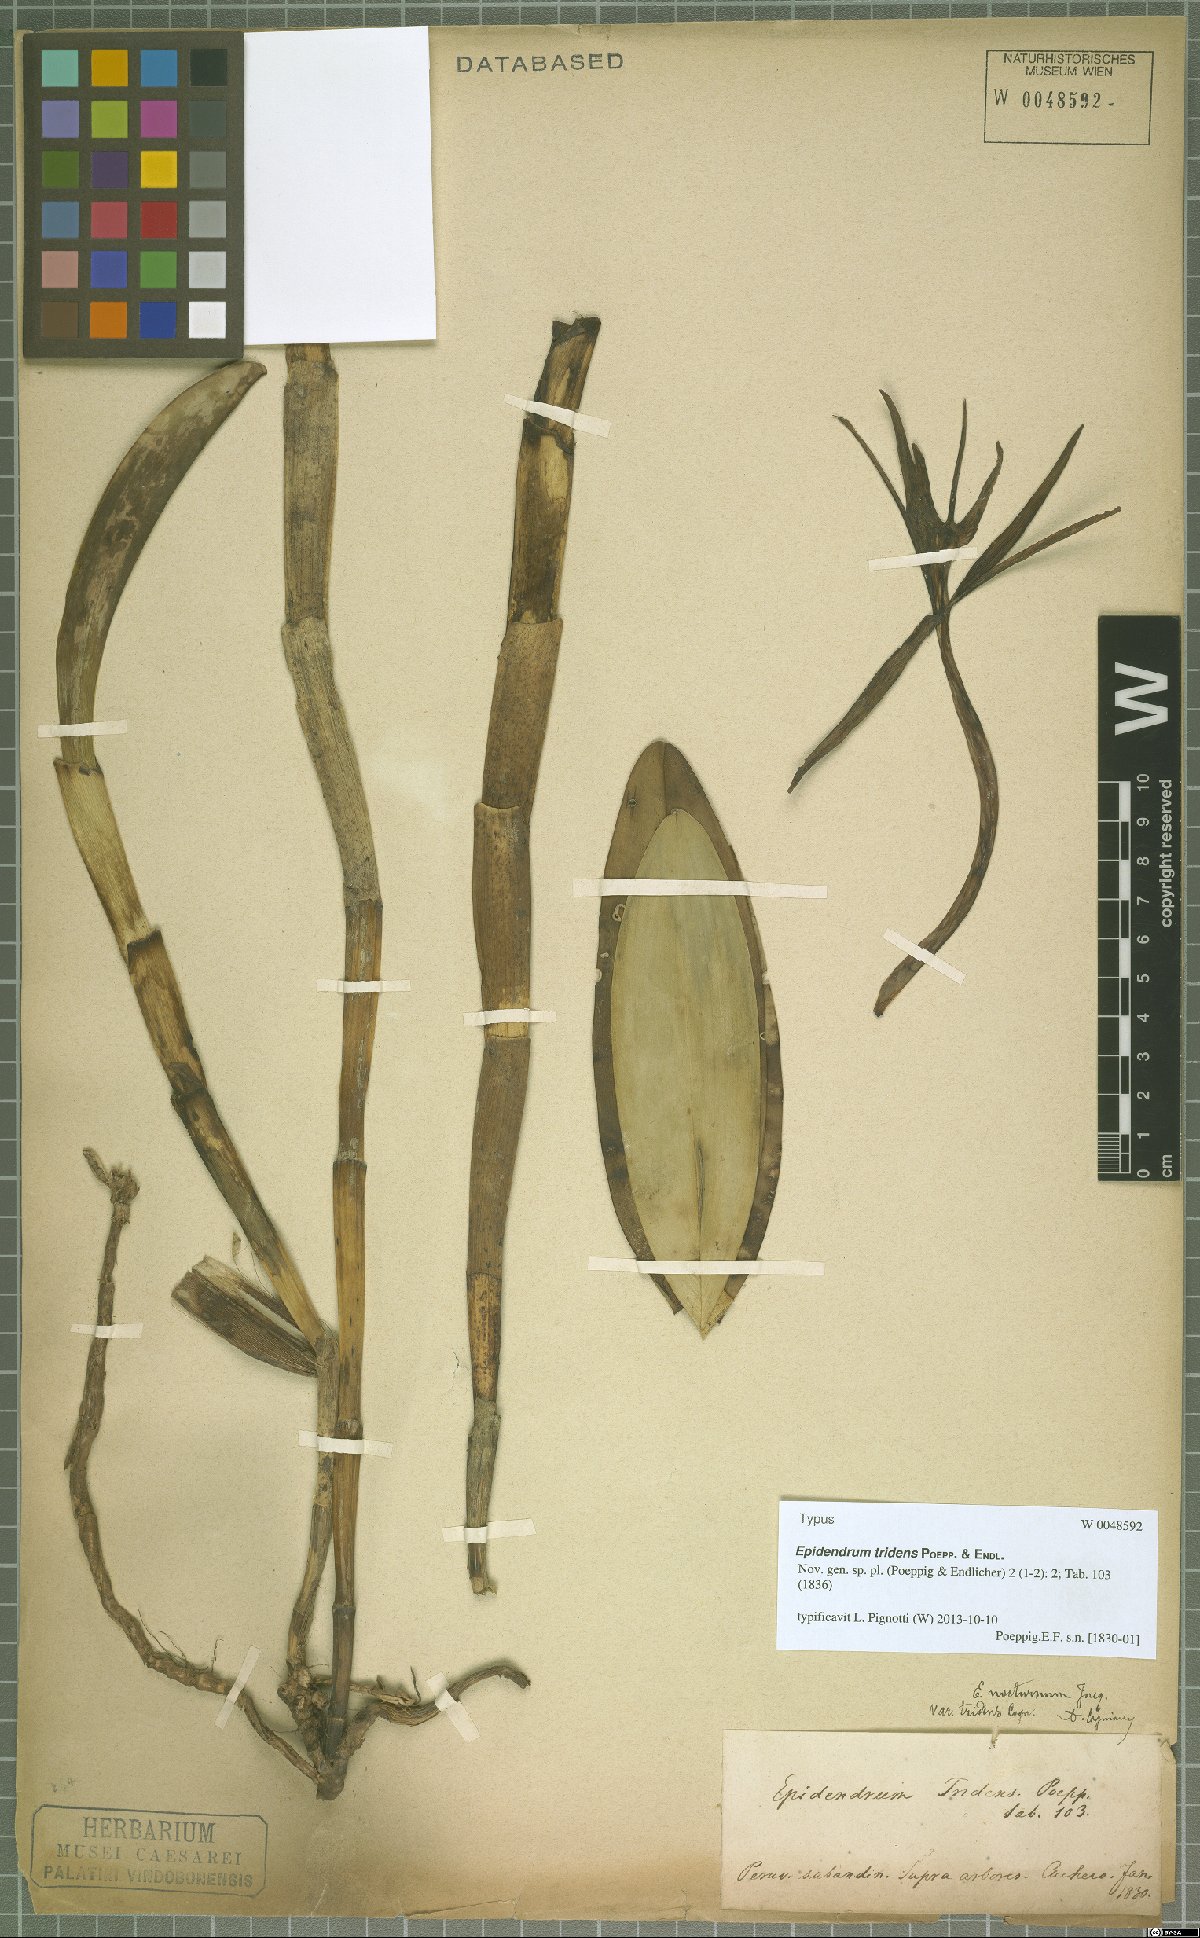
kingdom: Plantae
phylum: Tracheophyta
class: Liliopsida
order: Asparagales
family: Orchidaceae
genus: Epidendrum
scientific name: Epidendrum tridens
